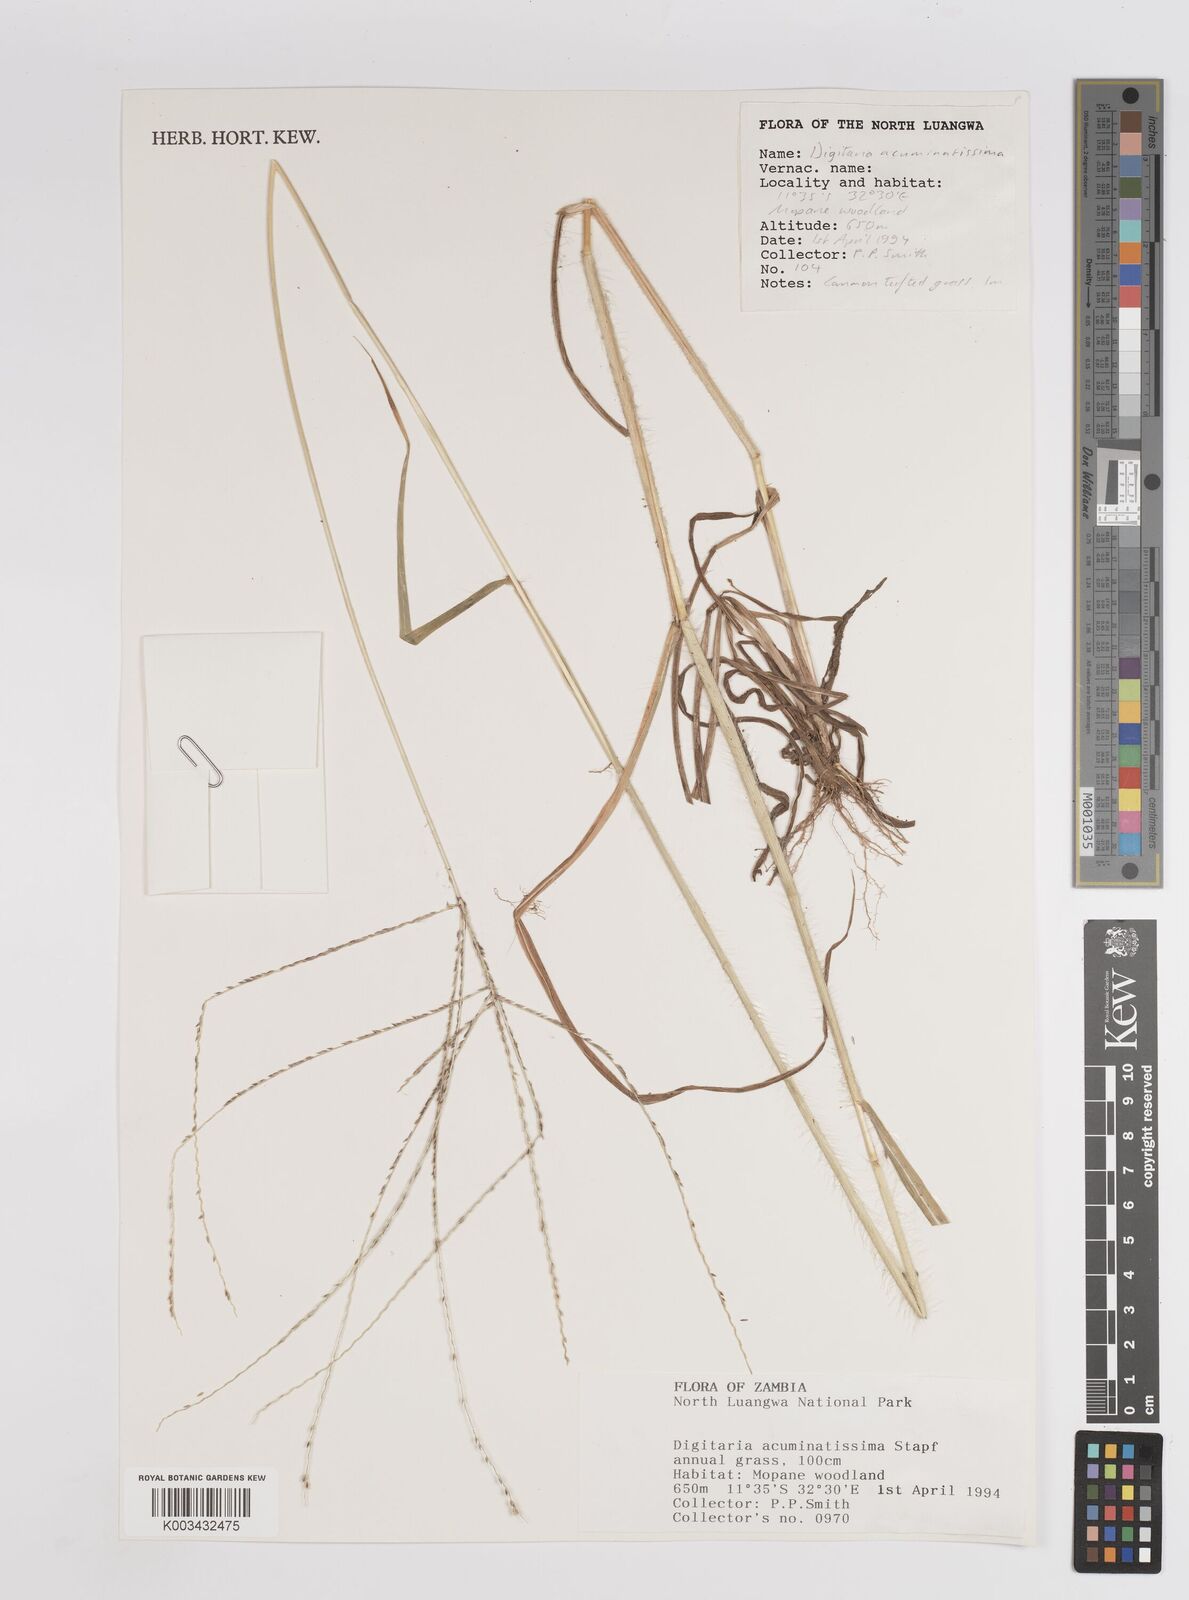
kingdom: Plantae
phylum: Tracheophyta
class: Liliopsida
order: Poales
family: Poaceae
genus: Digitaria
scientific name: Digitaria acuminatissima
